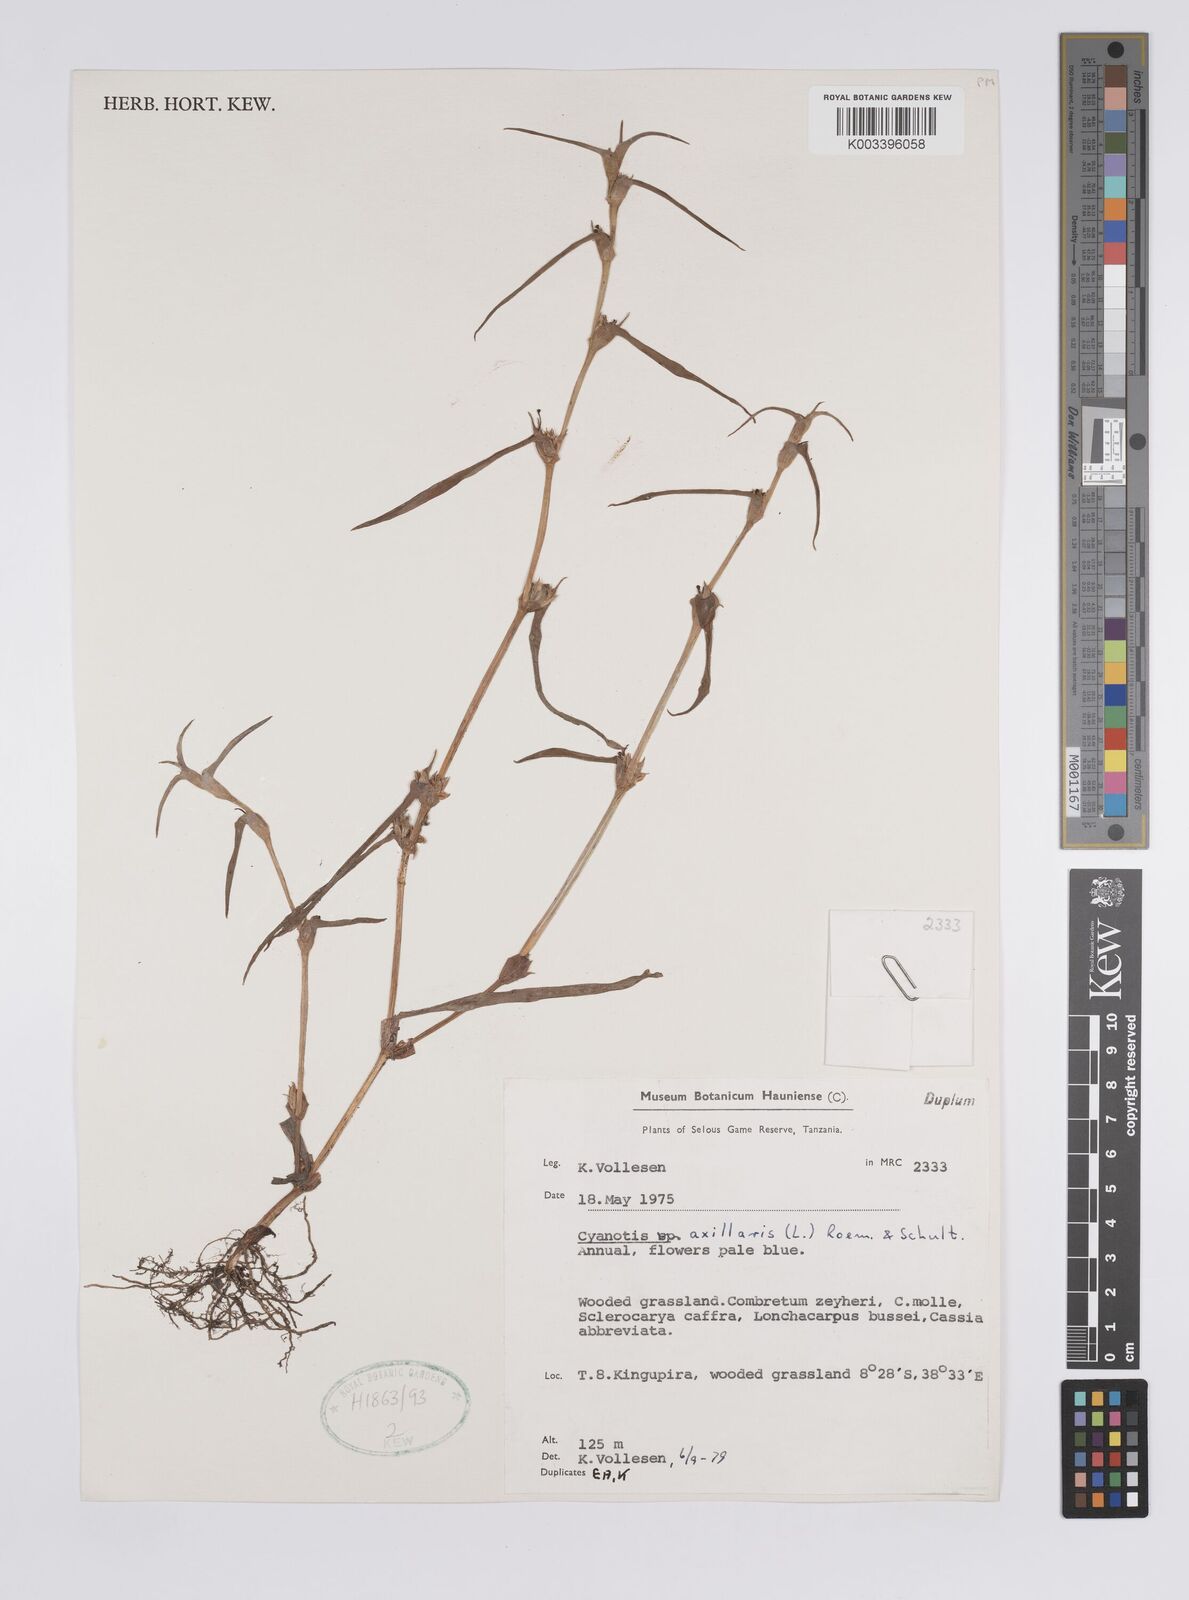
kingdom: Plantae
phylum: Tracheophyta
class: Liliopsida
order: Commelinales
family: Commelinaceae
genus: Cyanotis
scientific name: Cyanotis axillaris
